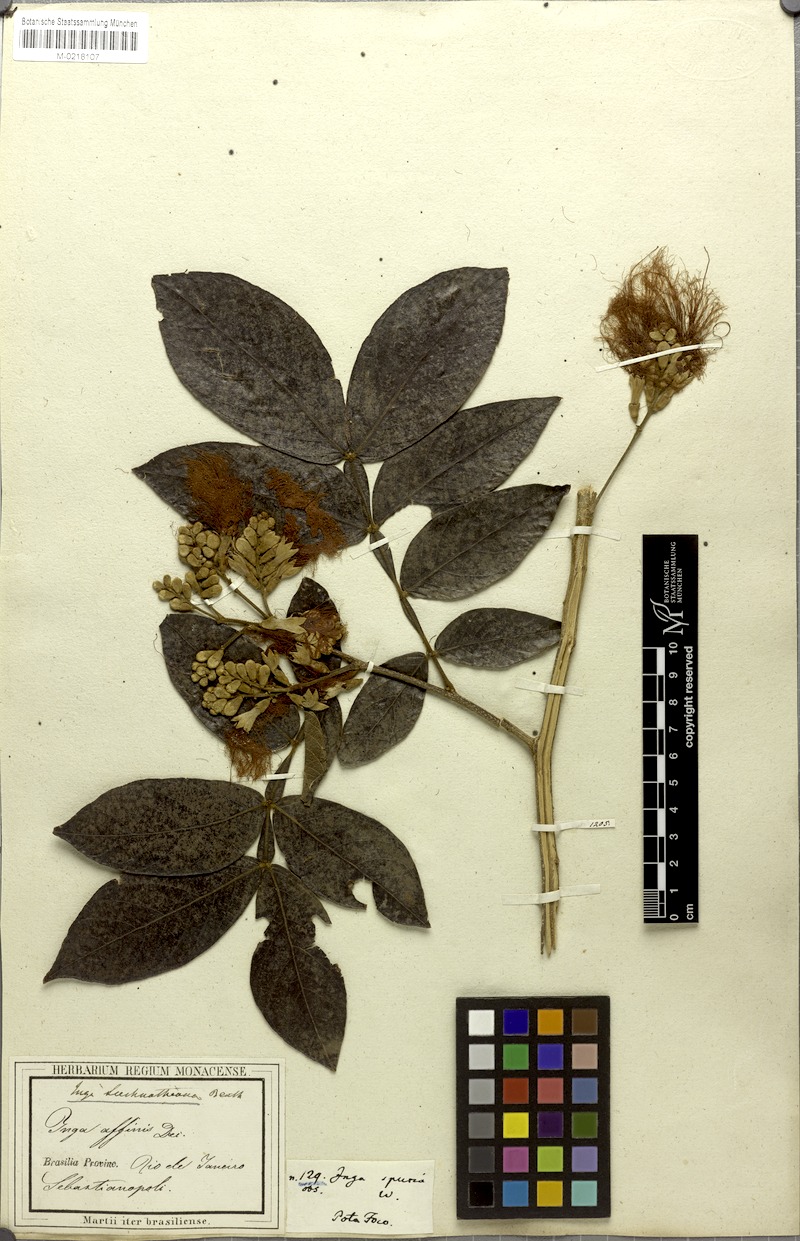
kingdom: Plantae
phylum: Tracheophyta
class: Magnoliopsida
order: Fabales
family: Fabaceae
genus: Inga
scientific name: Inga subnuda
